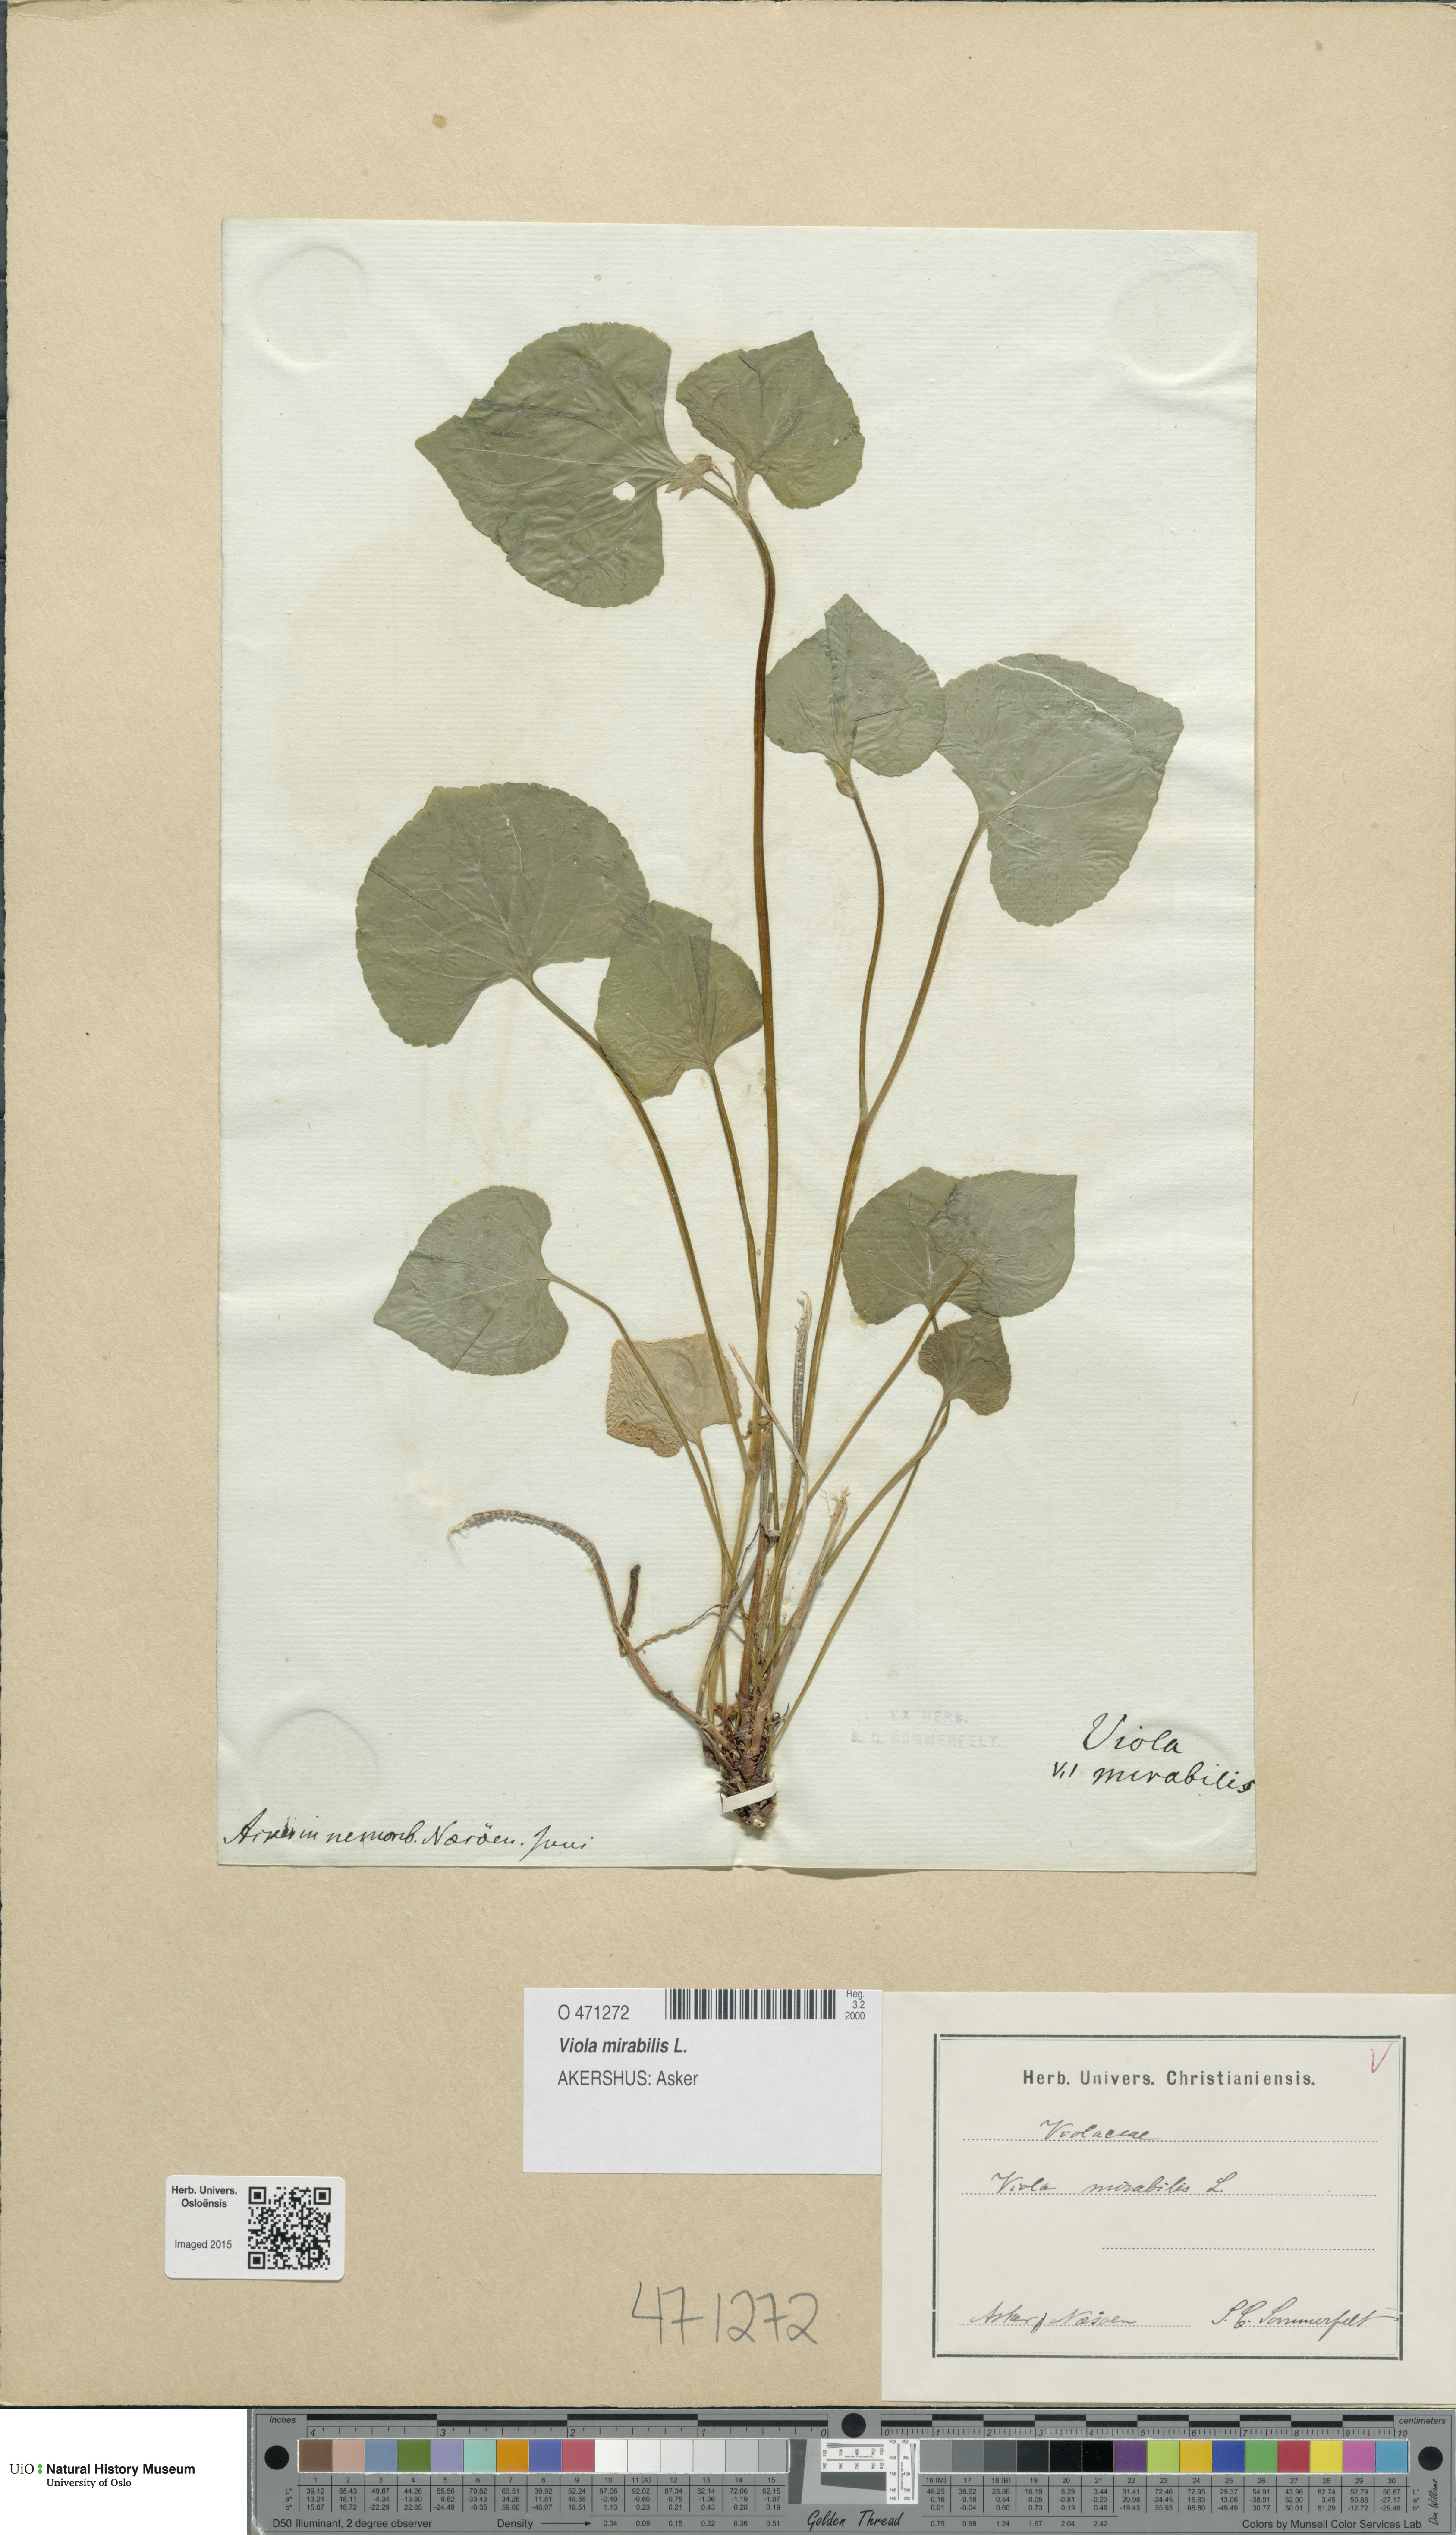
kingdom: Plantae
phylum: Tracheophyta
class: Magnoliopsida
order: Malpighiales
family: Violaceae
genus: Viola
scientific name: Viola mirabilis
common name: Wonder violet
